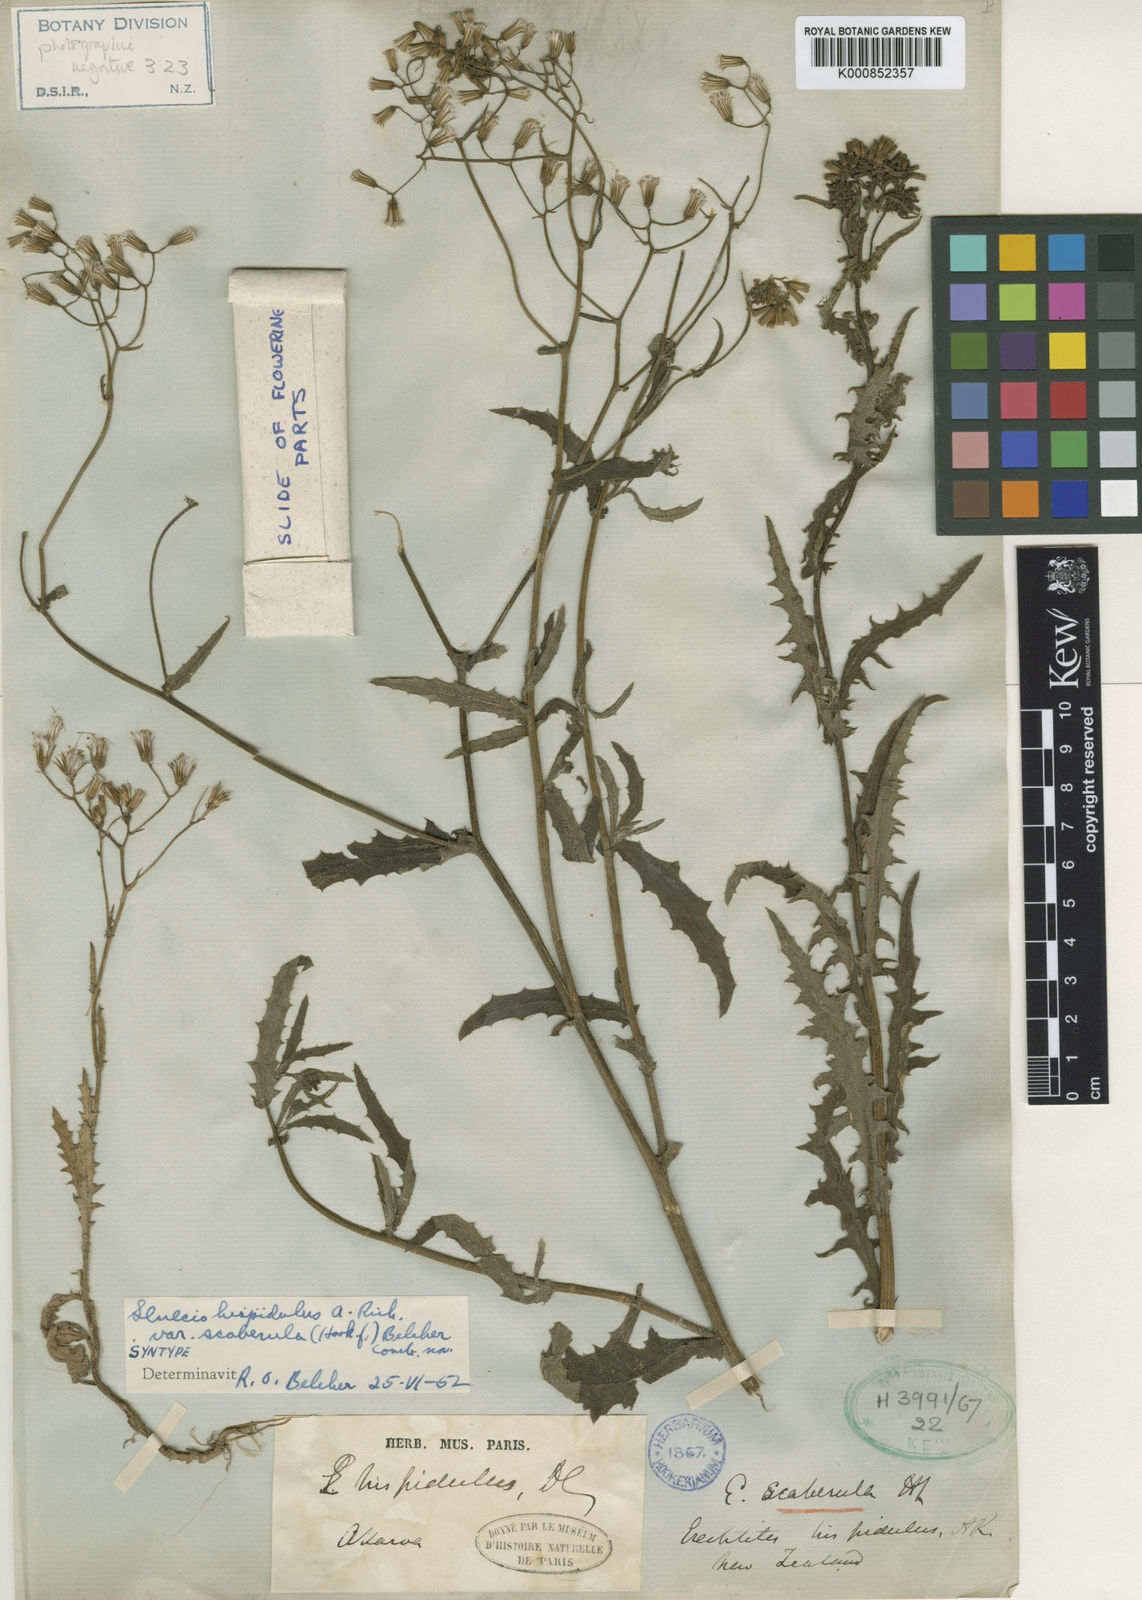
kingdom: Plantae
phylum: Tracheophyta
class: Magnoliopsida
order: Asterales
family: Asteraceae
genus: Senecio
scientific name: Senecio hispidulus
